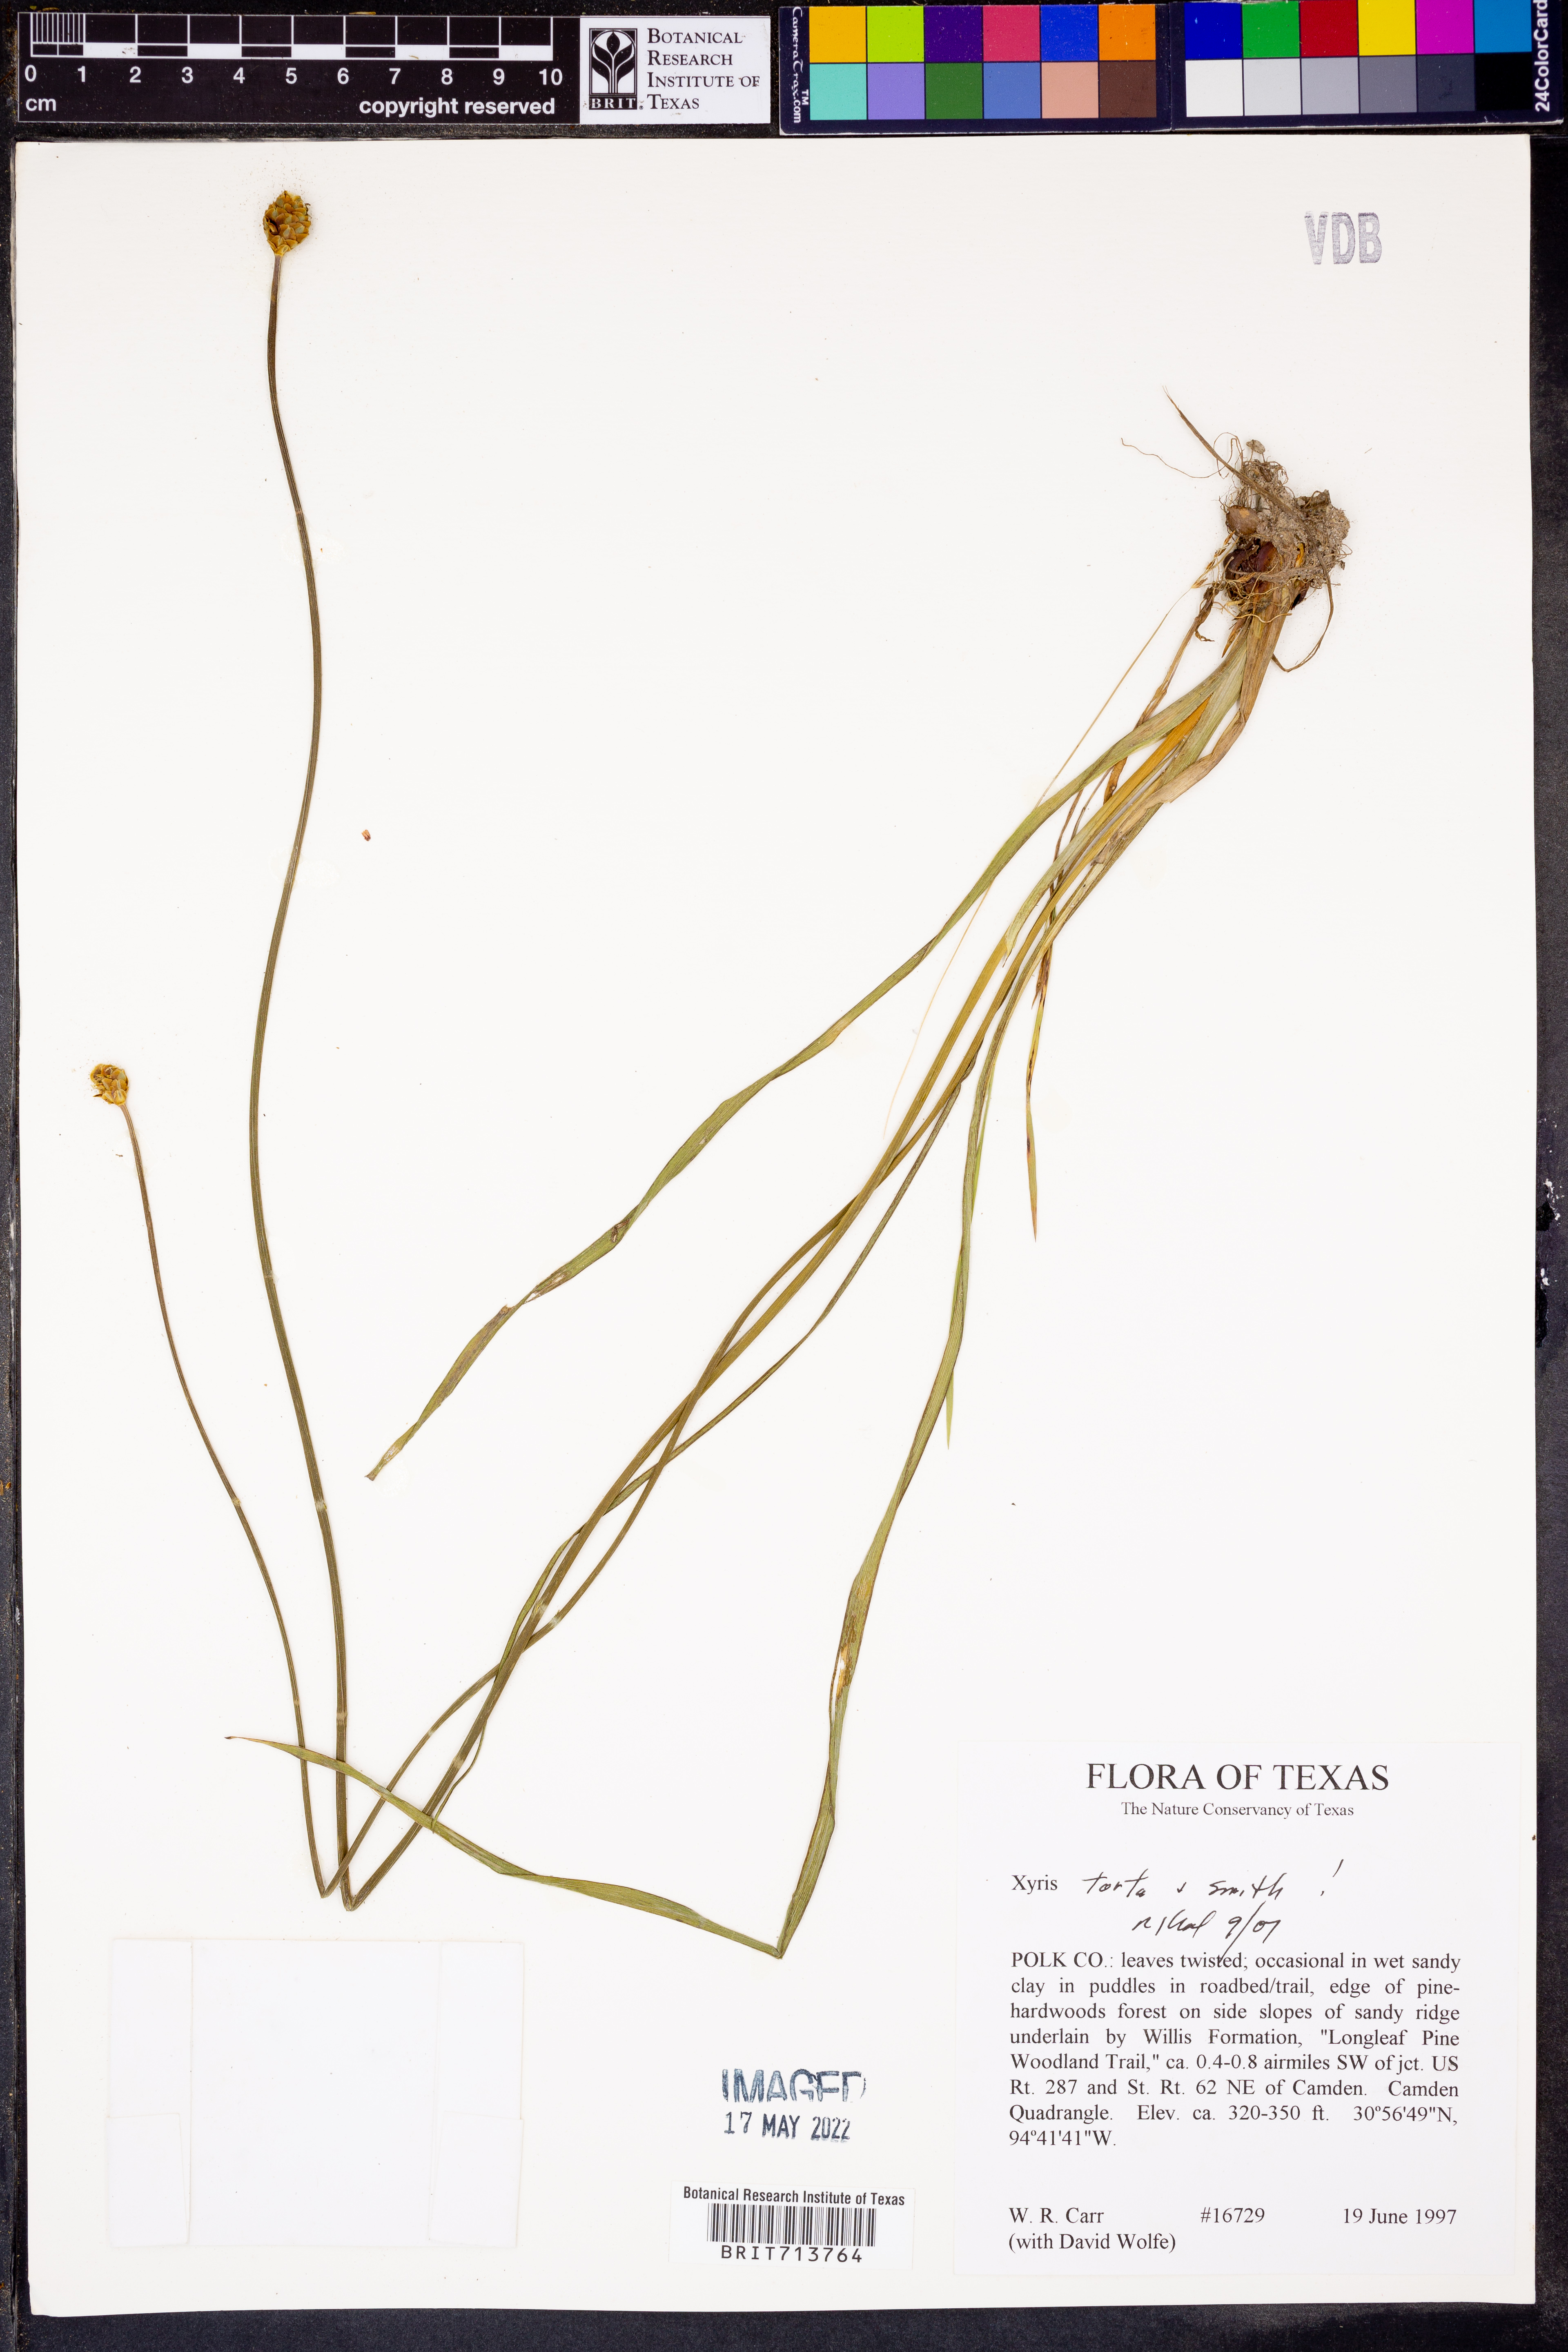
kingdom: Plantae
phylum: Tracheophyta
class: Liliopsida
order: Poales
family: Xyridaceae
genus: Xyris
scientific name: Xyris torta
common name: Common yelloweyed grass
